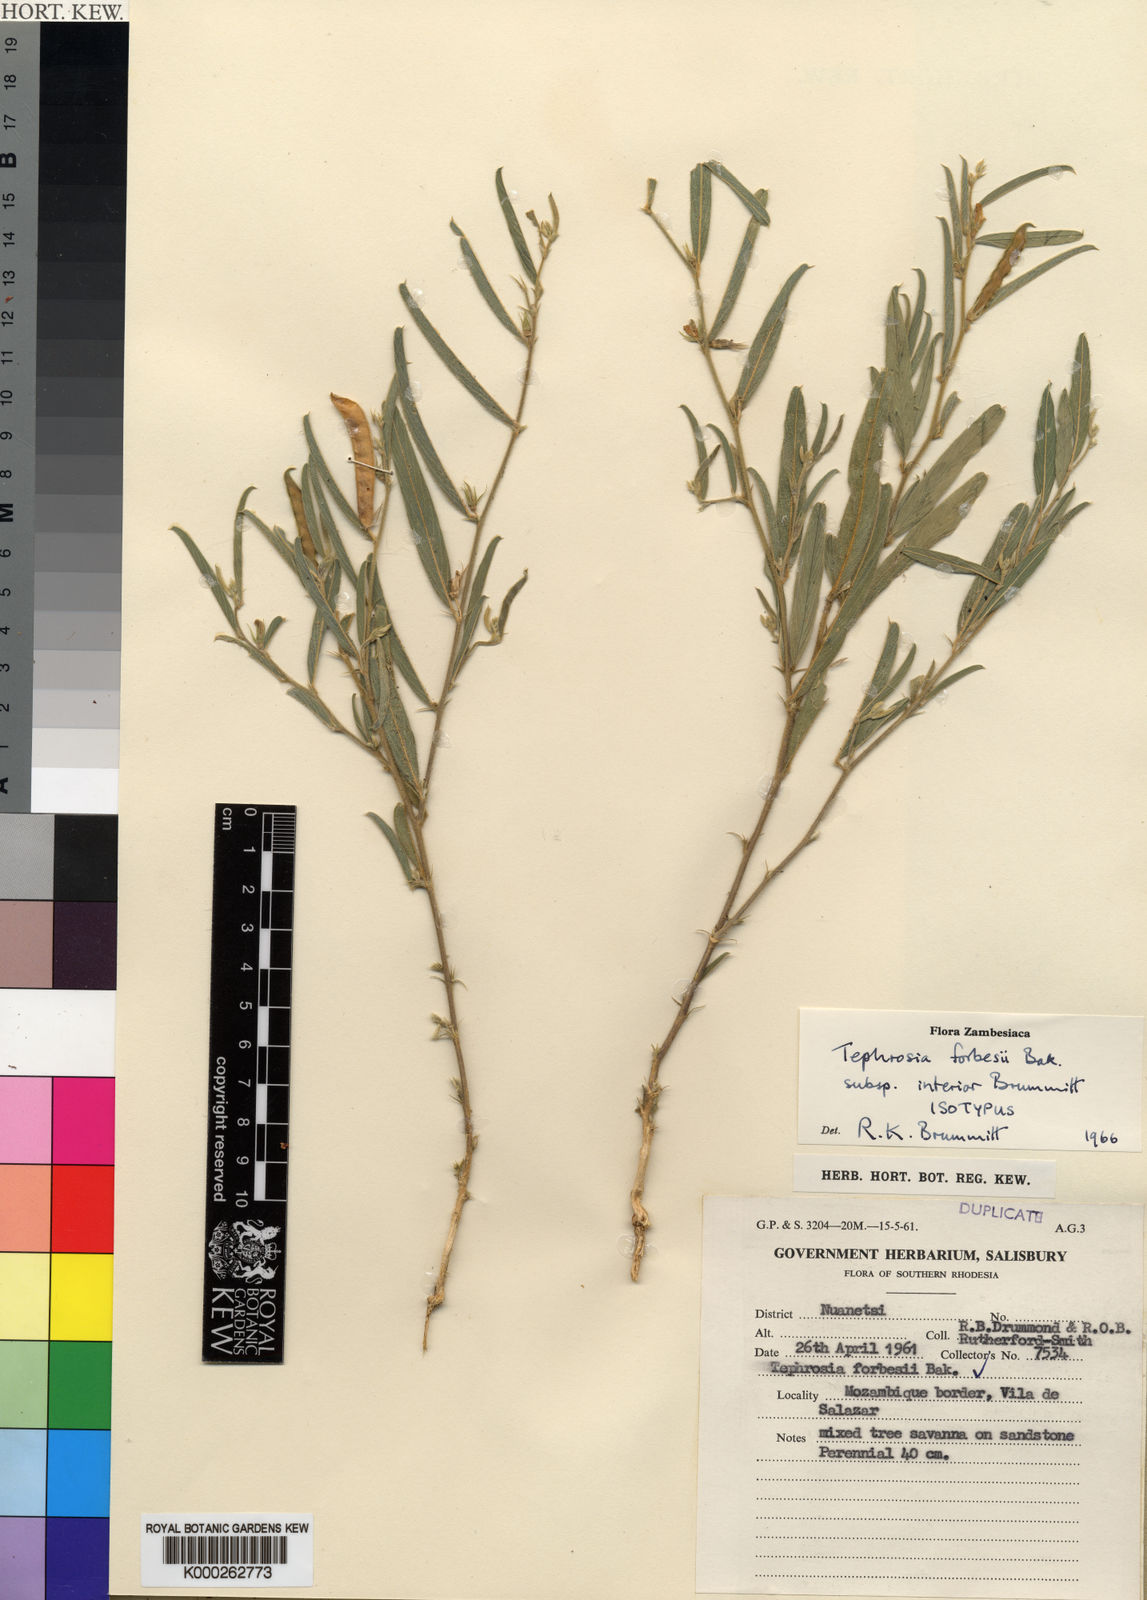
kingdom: Plantae
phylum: Tracheophyta
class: Magnoliopsida
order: Fabales
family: Fabaceae
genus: Tephrosia
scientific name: Tephrosia forbesii
